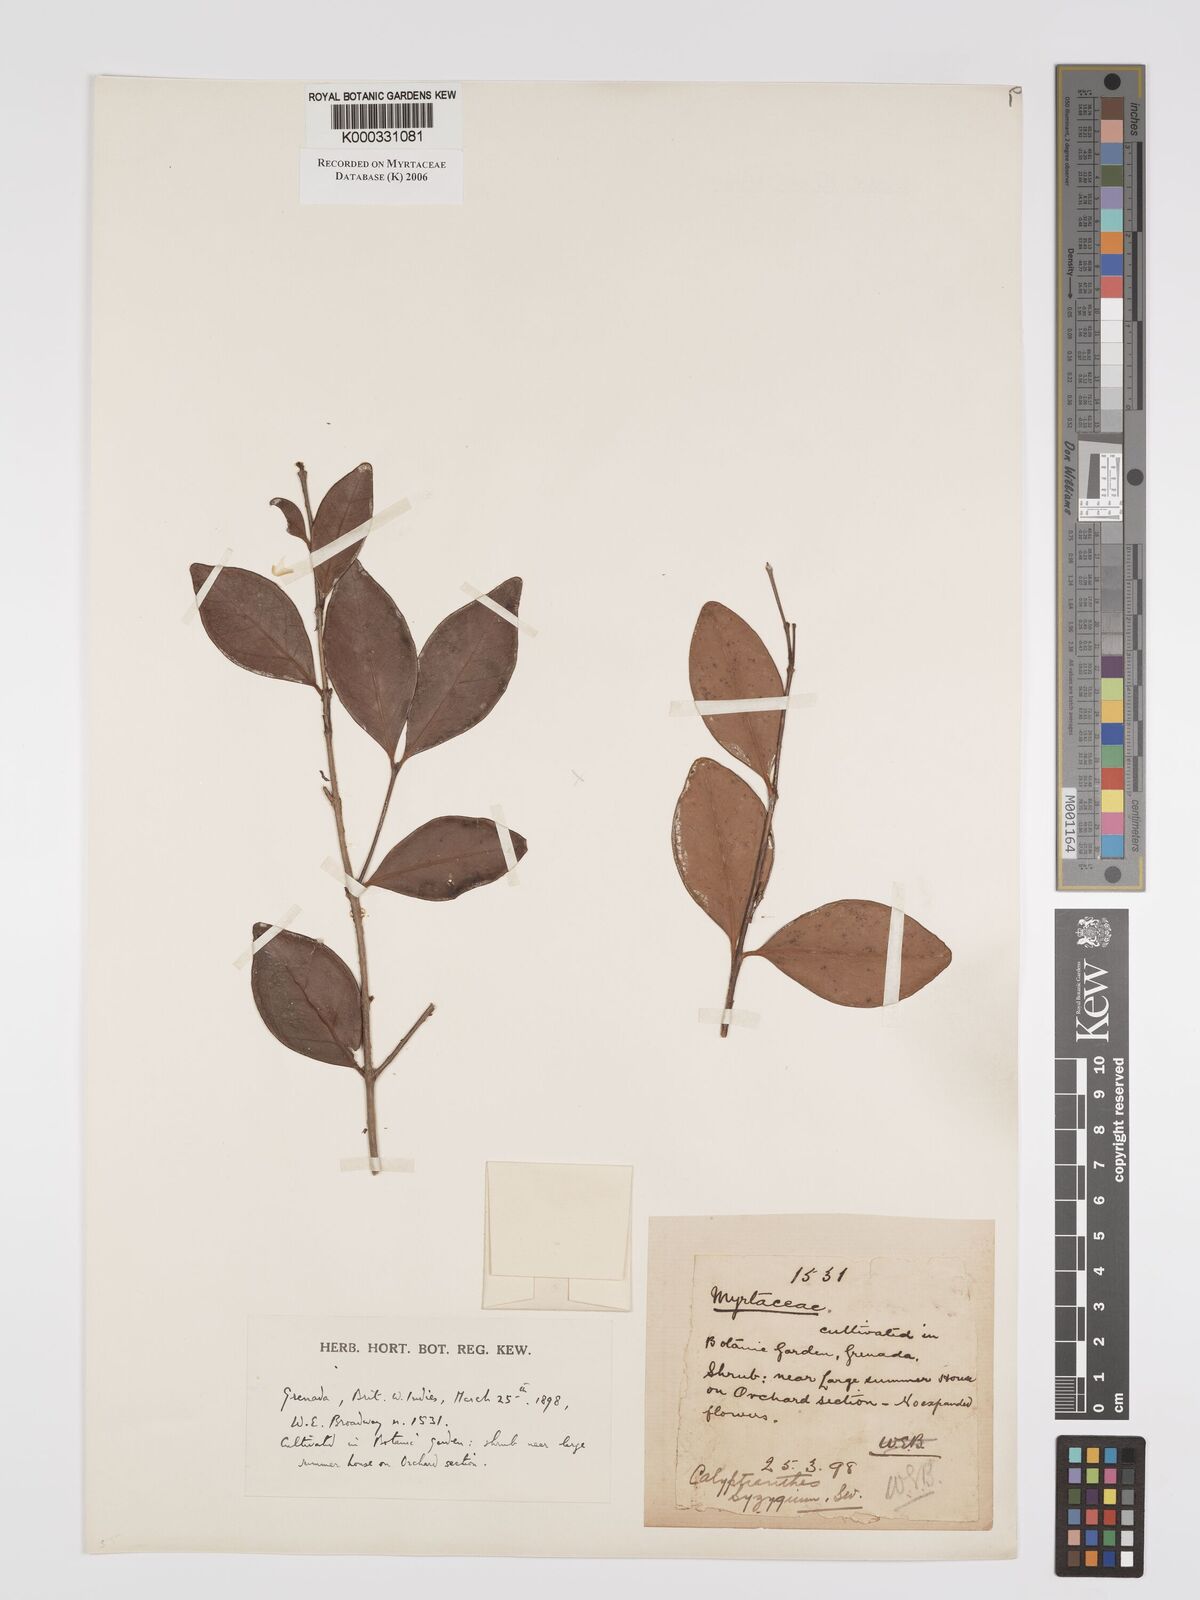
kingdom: Plantae
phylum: Tracheophyta
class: Magnoliopsida
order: Myrtales
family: Myrtaceae
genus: Myrcia
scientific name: Myrcia chytraculia
